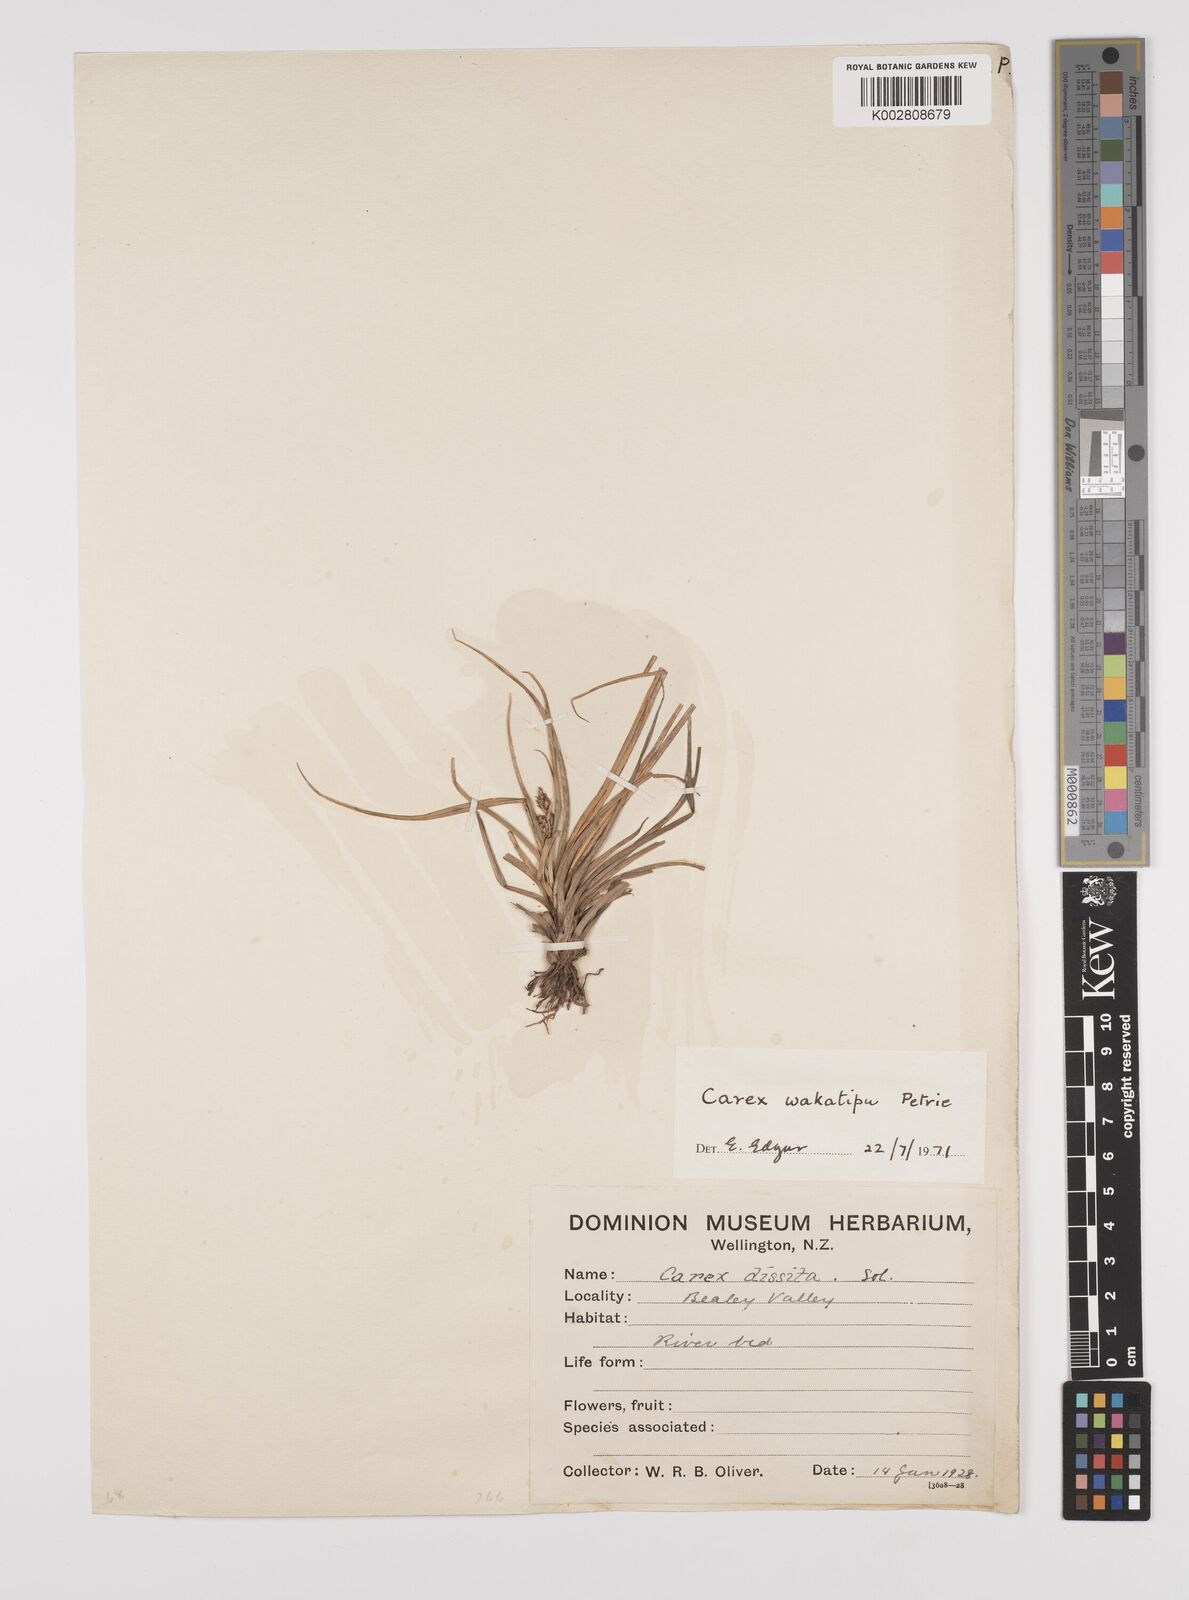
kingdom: Plantae
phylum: Tracheophyta
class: Liliopsida
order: Poales
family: Cyperaceae
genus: Carex
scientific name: Carex wakatipu
